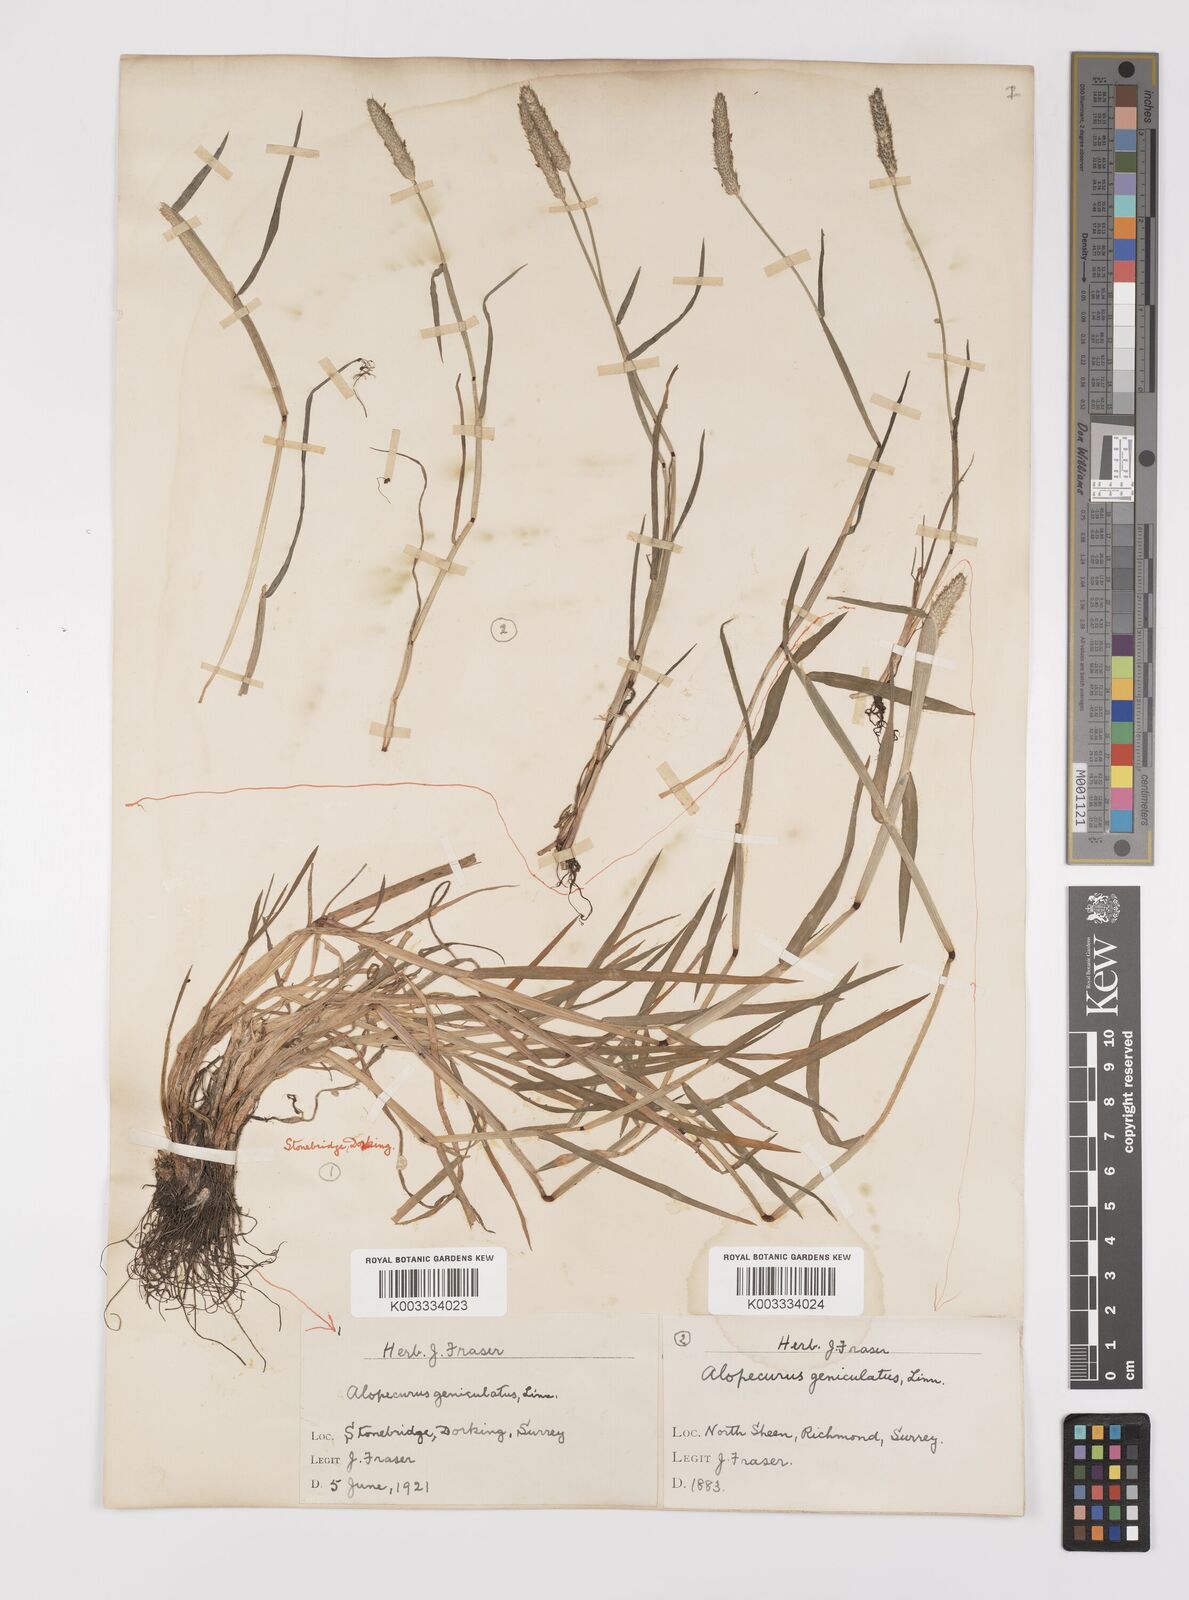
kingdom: Plantae
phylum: Tracheophyta
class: Liliopsida
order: Poales
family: Poaceae
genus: Alopecurus
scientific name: Alopecurus geniculatus
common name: Water foxtail
